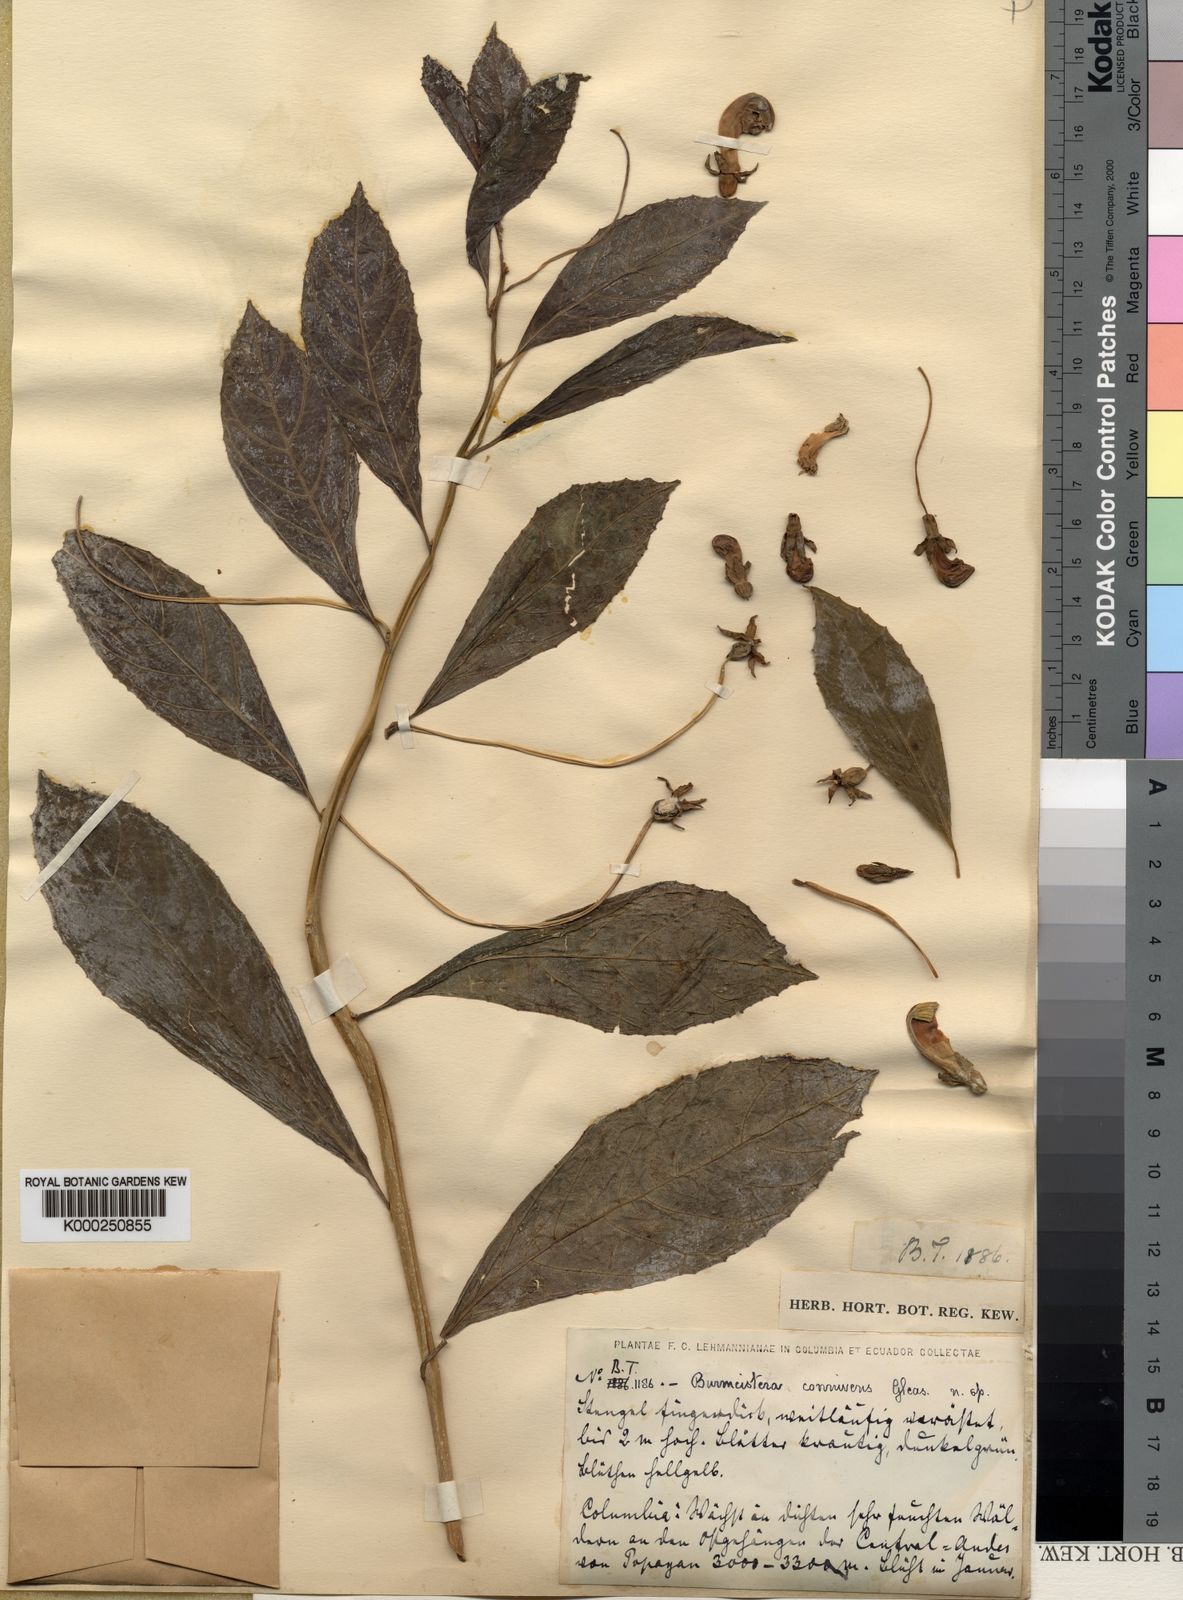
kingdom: Plantae
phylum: Tracheophyta
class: Magnoliopsida
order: Asterales
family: Campanulaceae
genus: Burmeistera
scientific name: Burmeistera connivens
